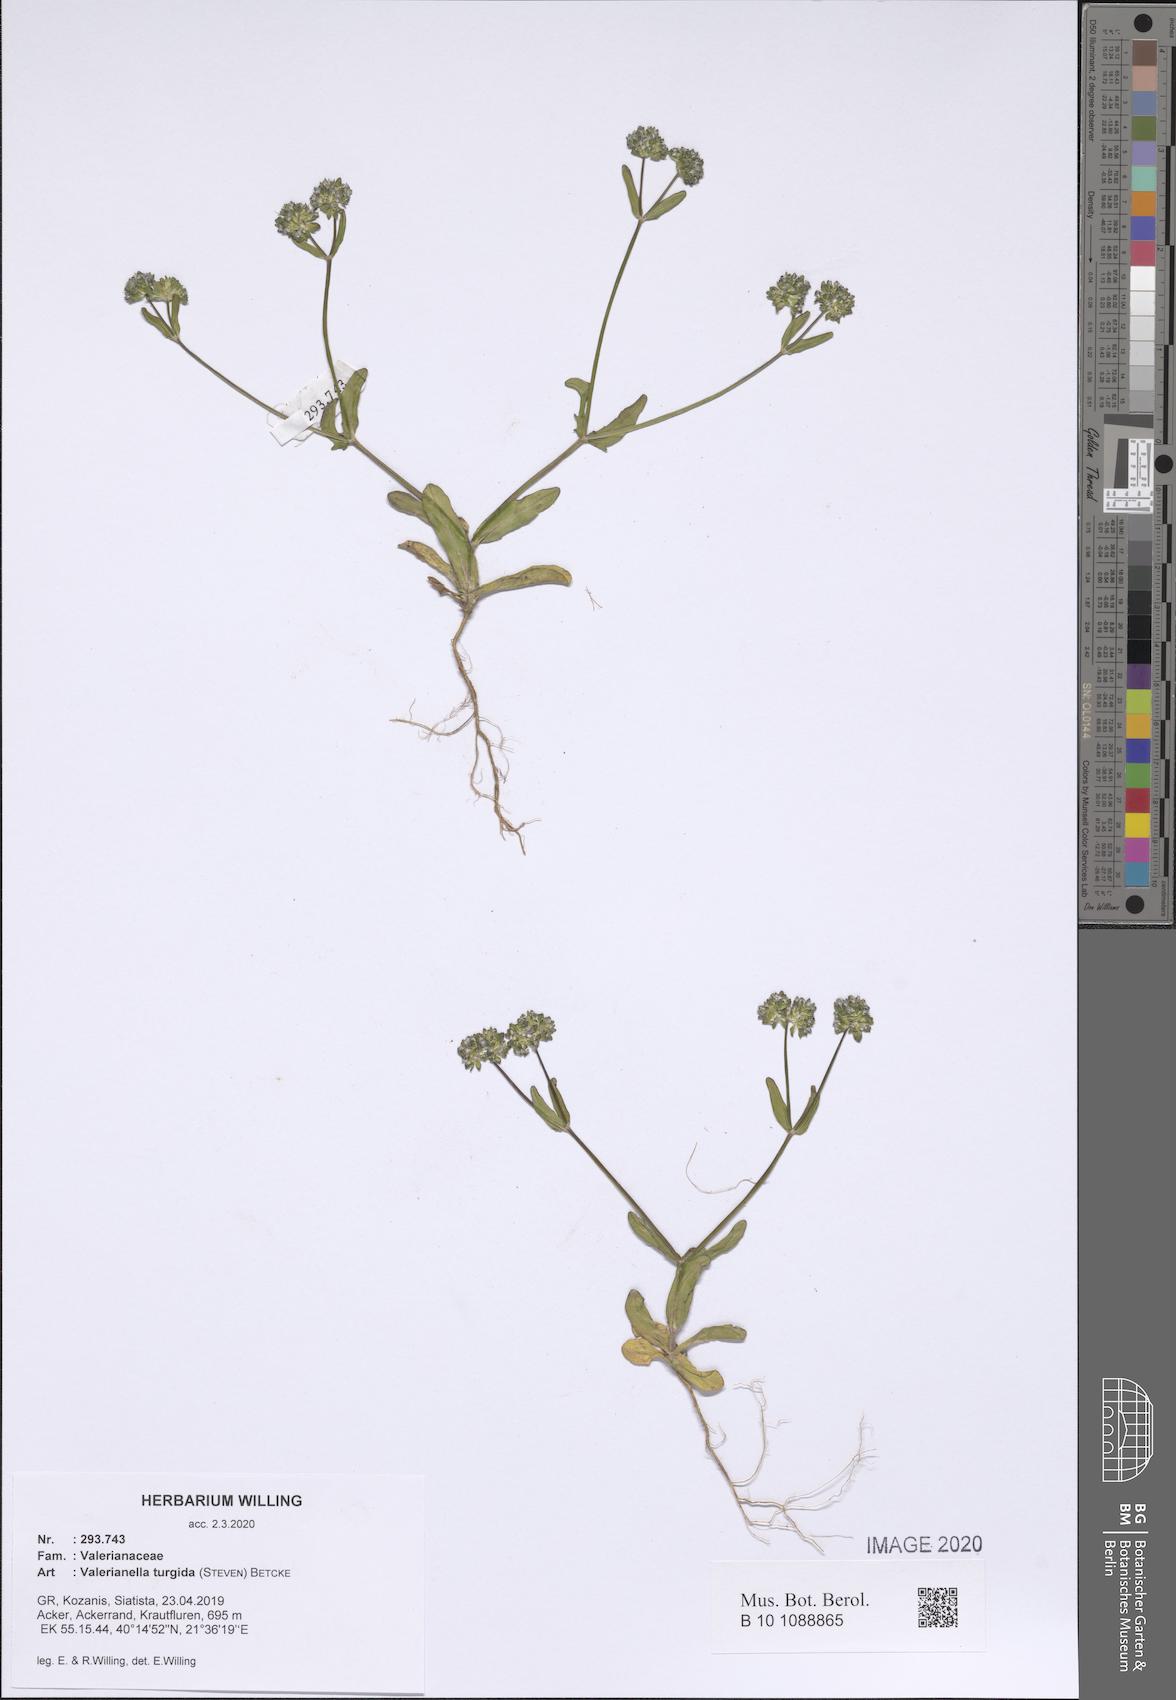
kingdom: Plantae
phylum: Tracheophyta
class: Magnoliopsida
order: Dipsacales
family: Caprifoliaceae
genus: Valerianella
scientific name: Valerianella turgida
